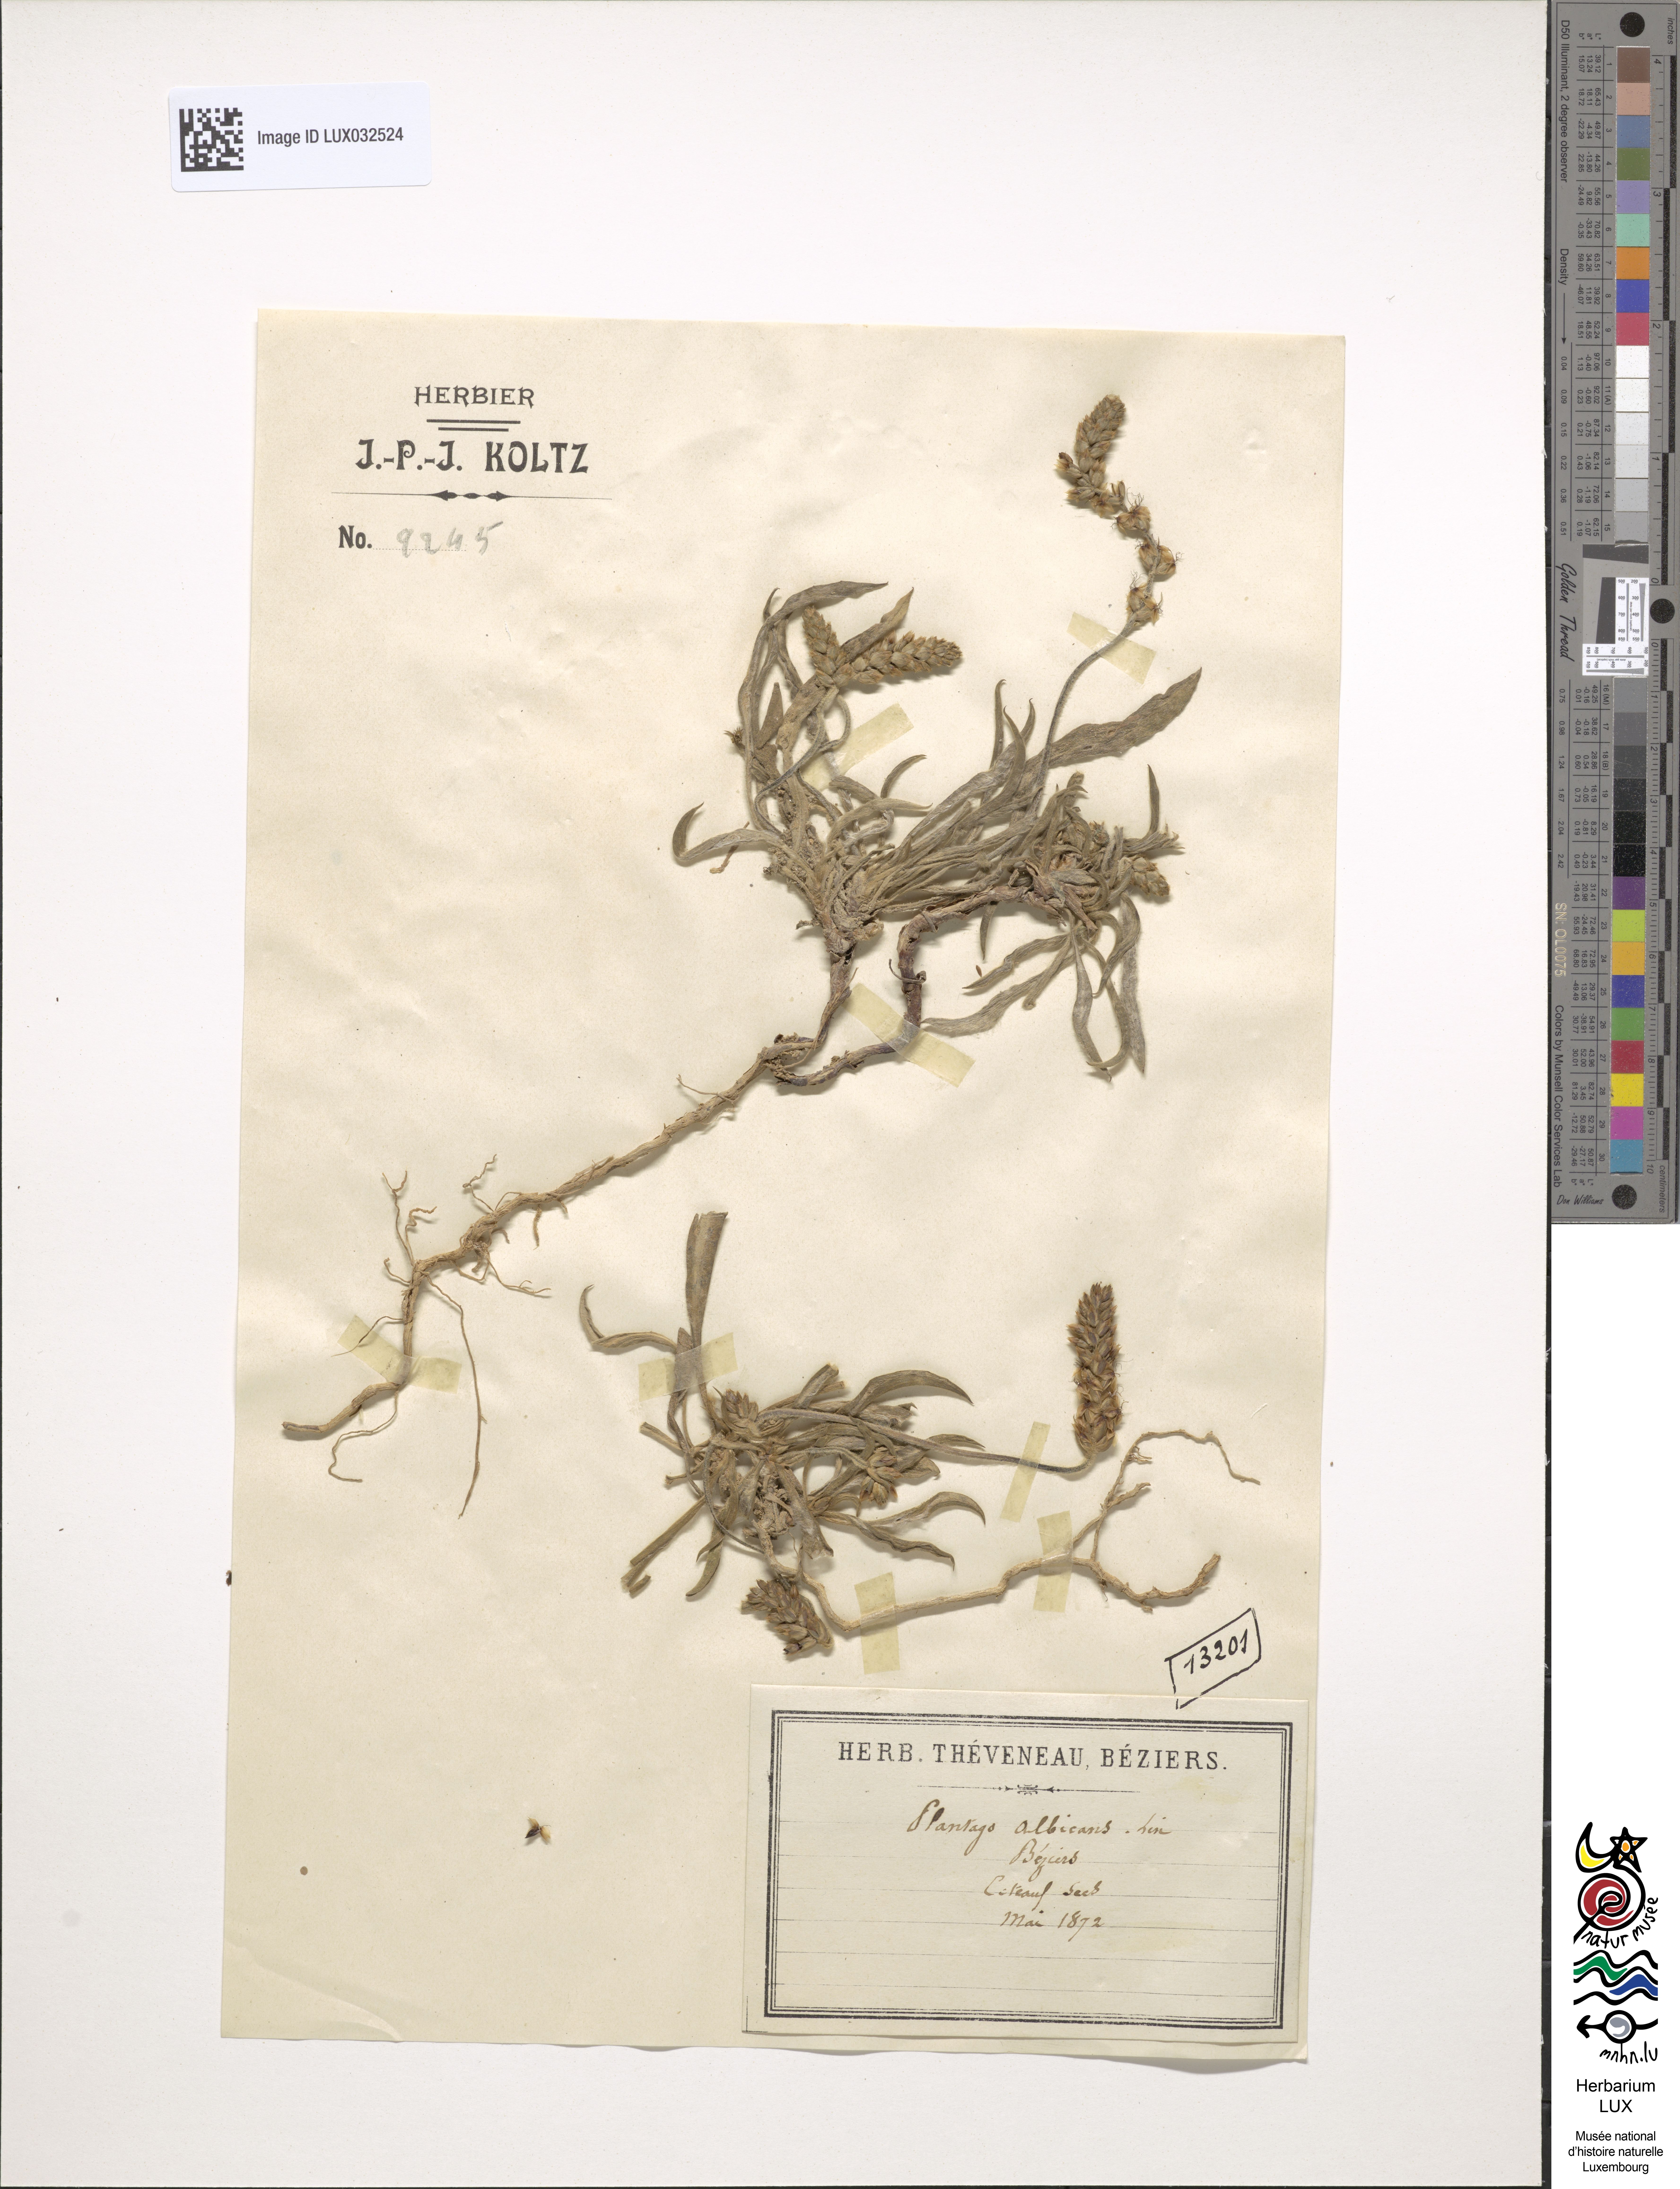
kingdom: Plantae
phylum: Tracheophyta
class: Magnoliopsida
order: Lamiales
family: Plantaginaceae
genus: Plantago
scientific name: Plantago albicans
